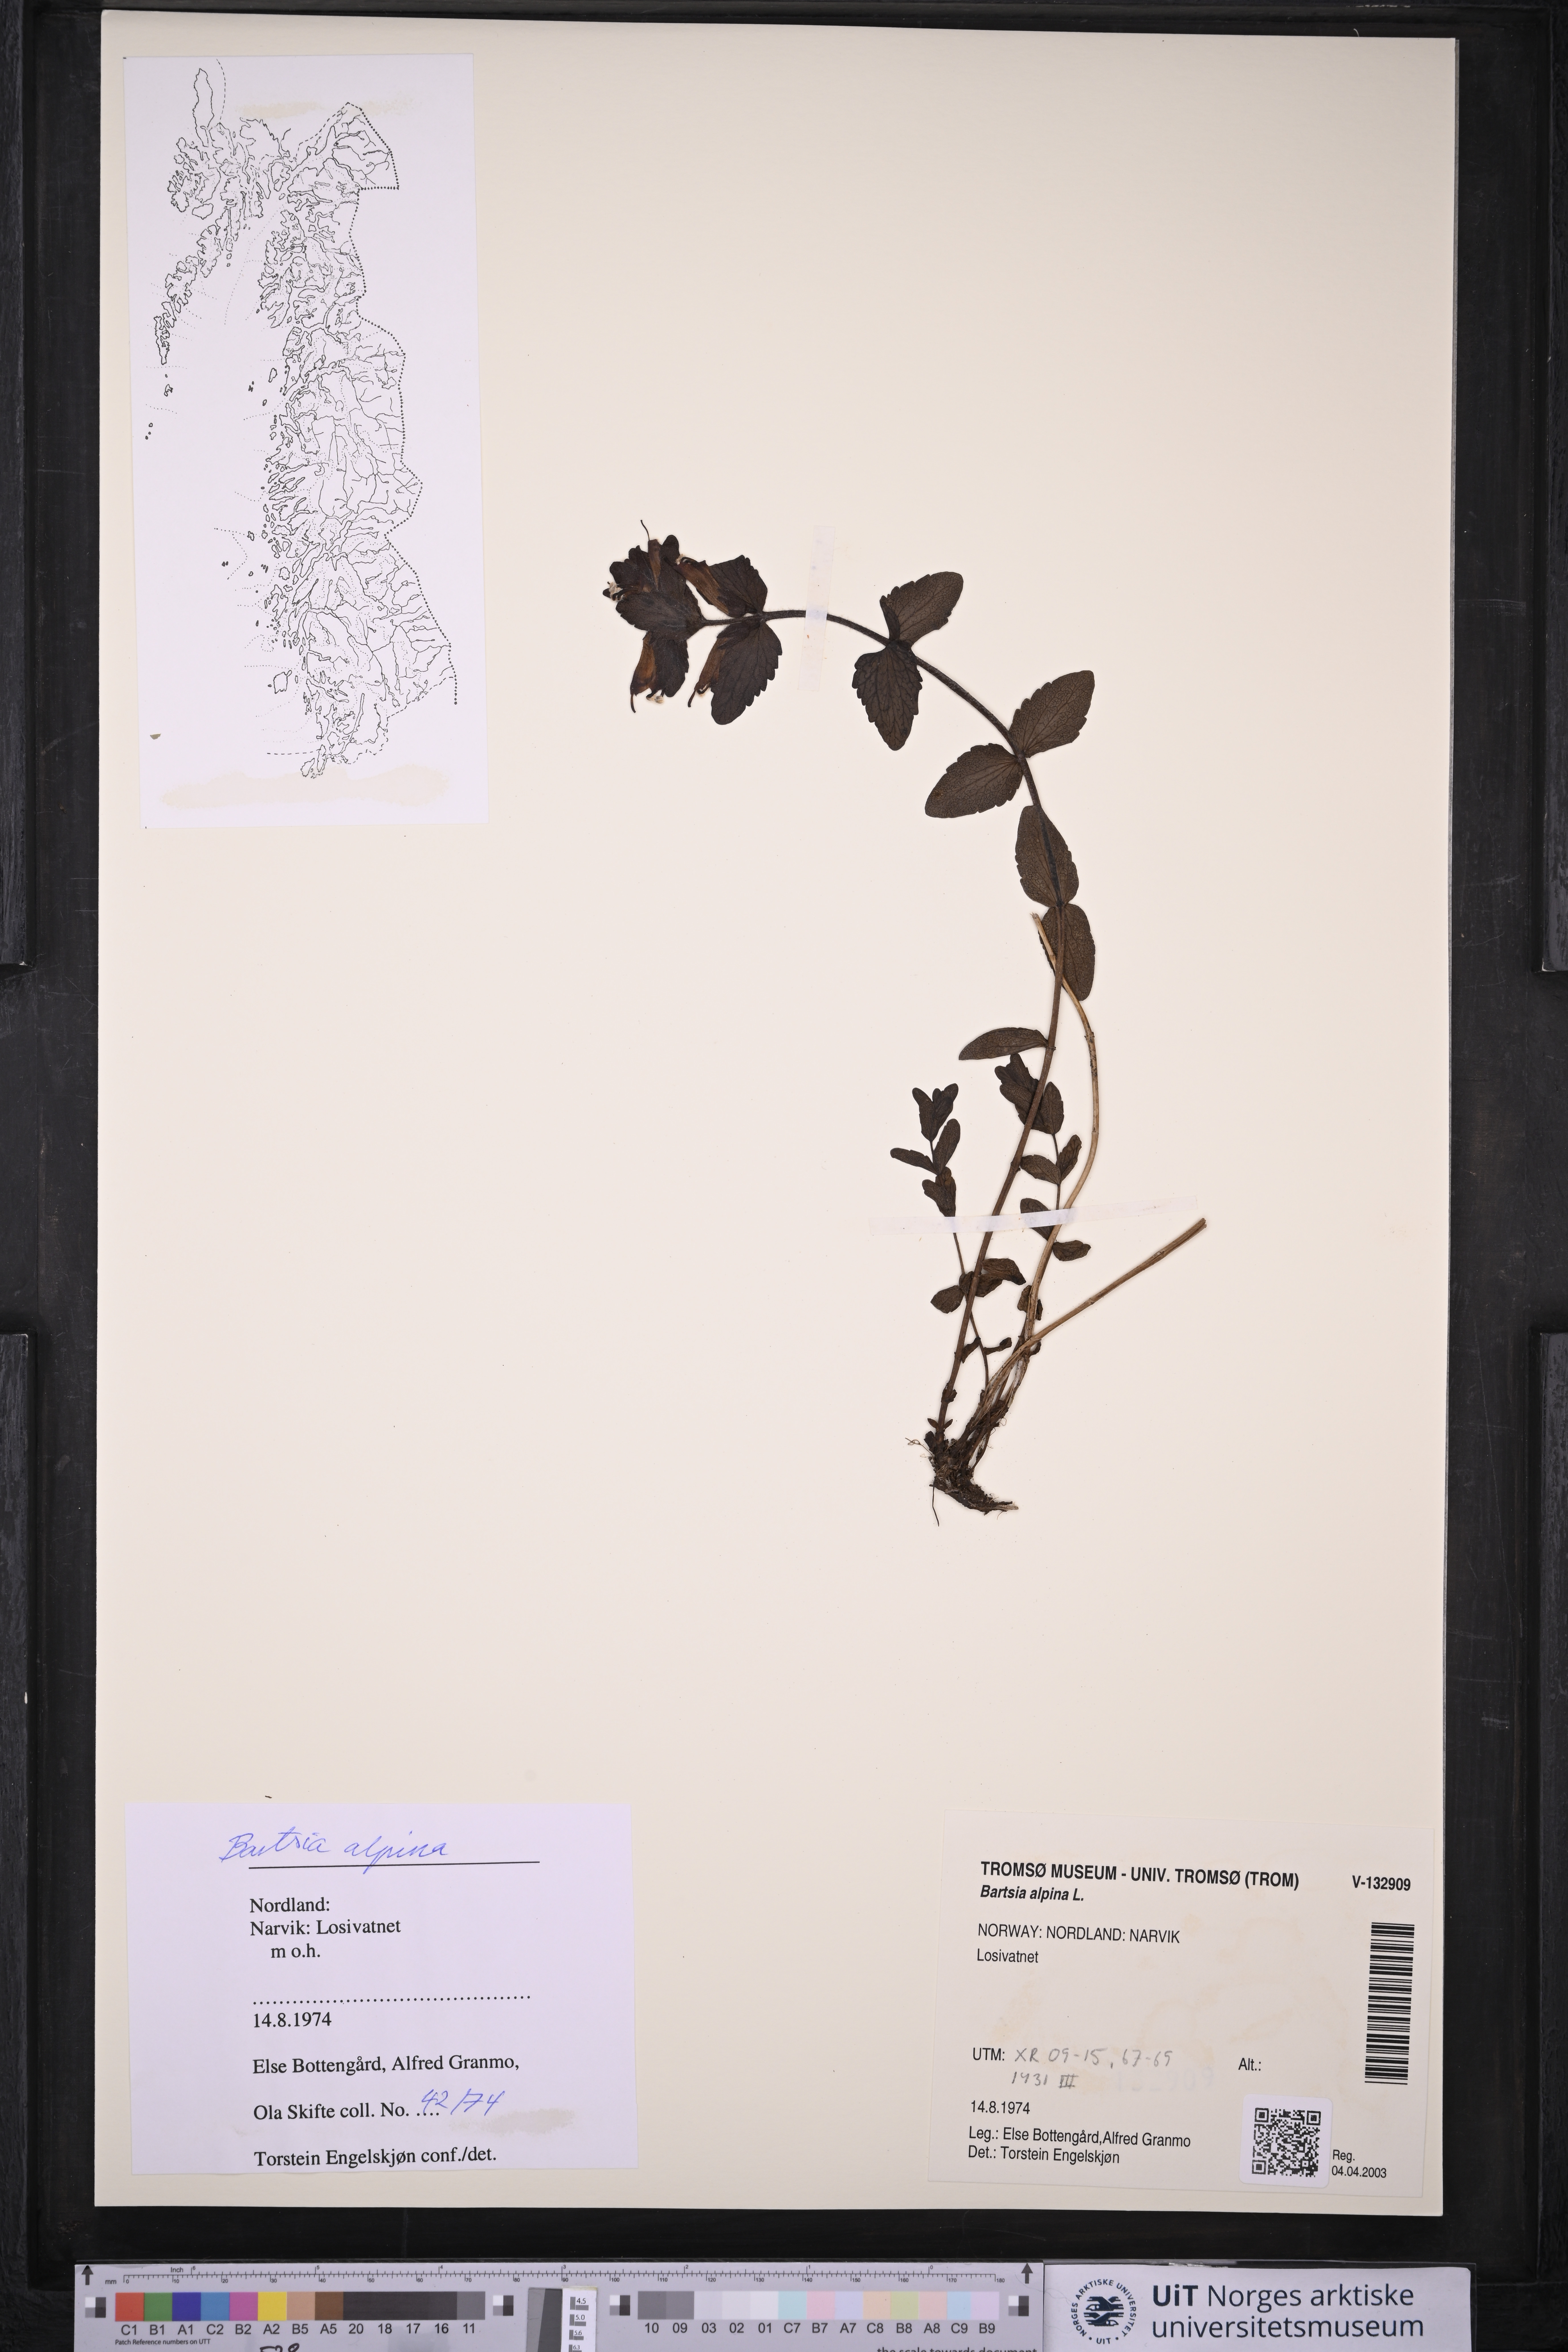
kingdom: Plantae
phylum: Tracheophyta
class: Magnoliopsida
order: Lamiales
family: Orobanchaceae
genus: Bartsia
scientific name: Bartsia alpina
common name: Alpine bartsia
